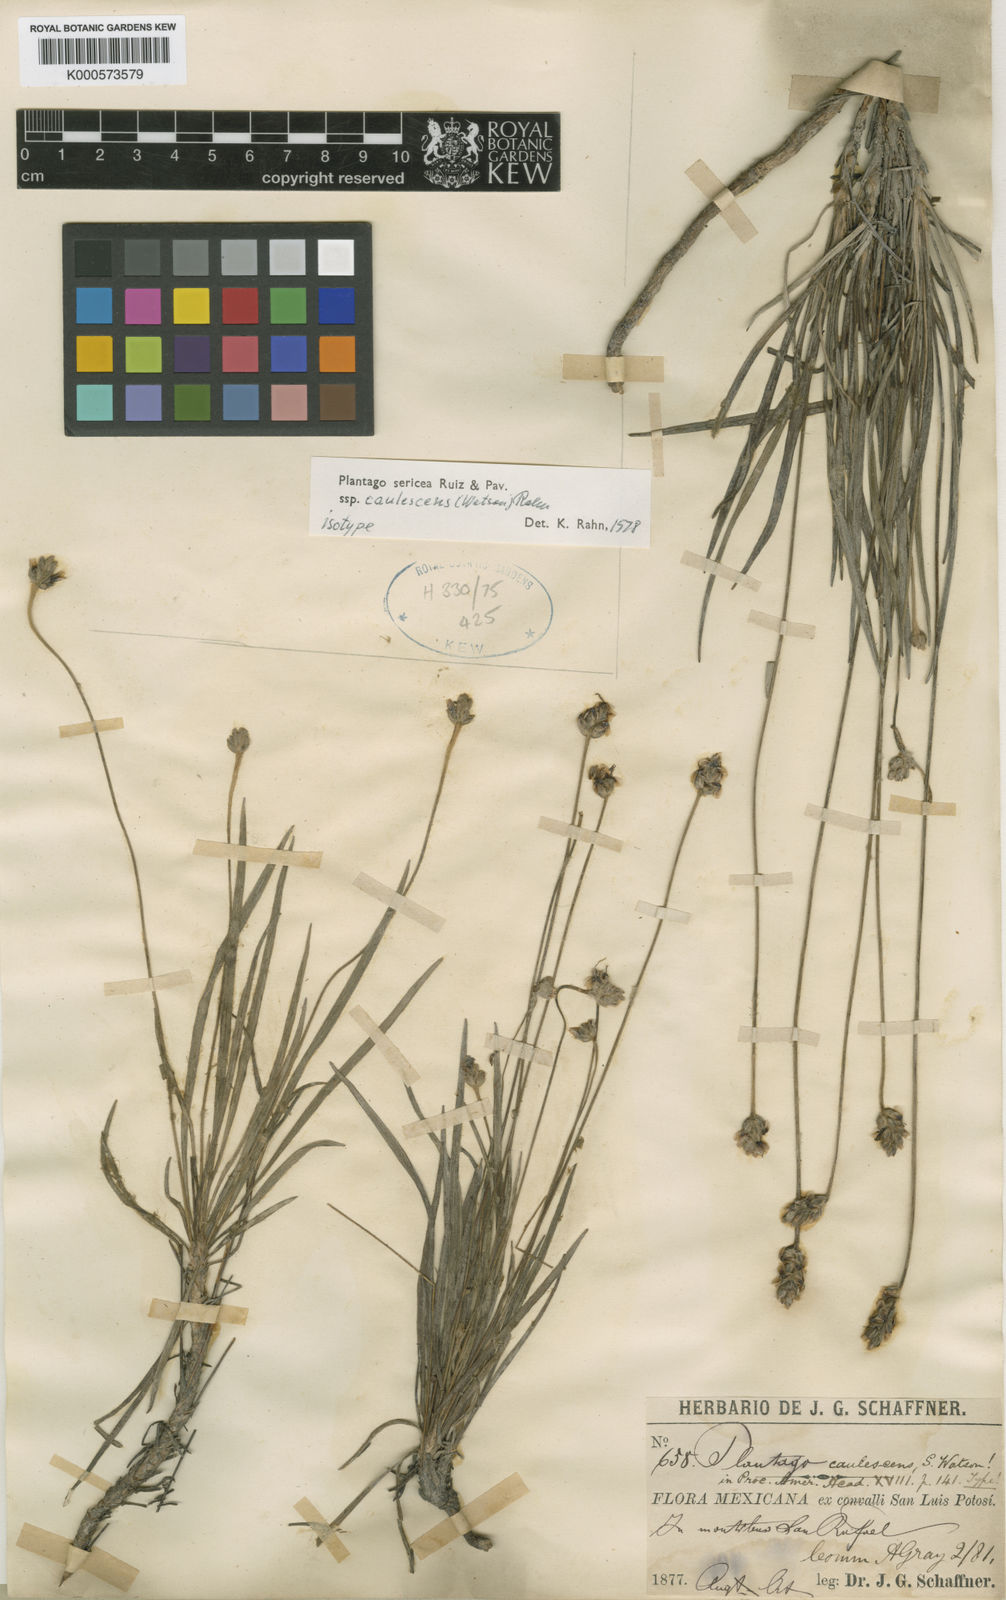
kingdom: Plantae
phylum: Tracheophyta
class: Magnoliopsida
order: Lamiales
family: Plantaginaceae
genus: Plantago
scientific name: Plantago sericea
